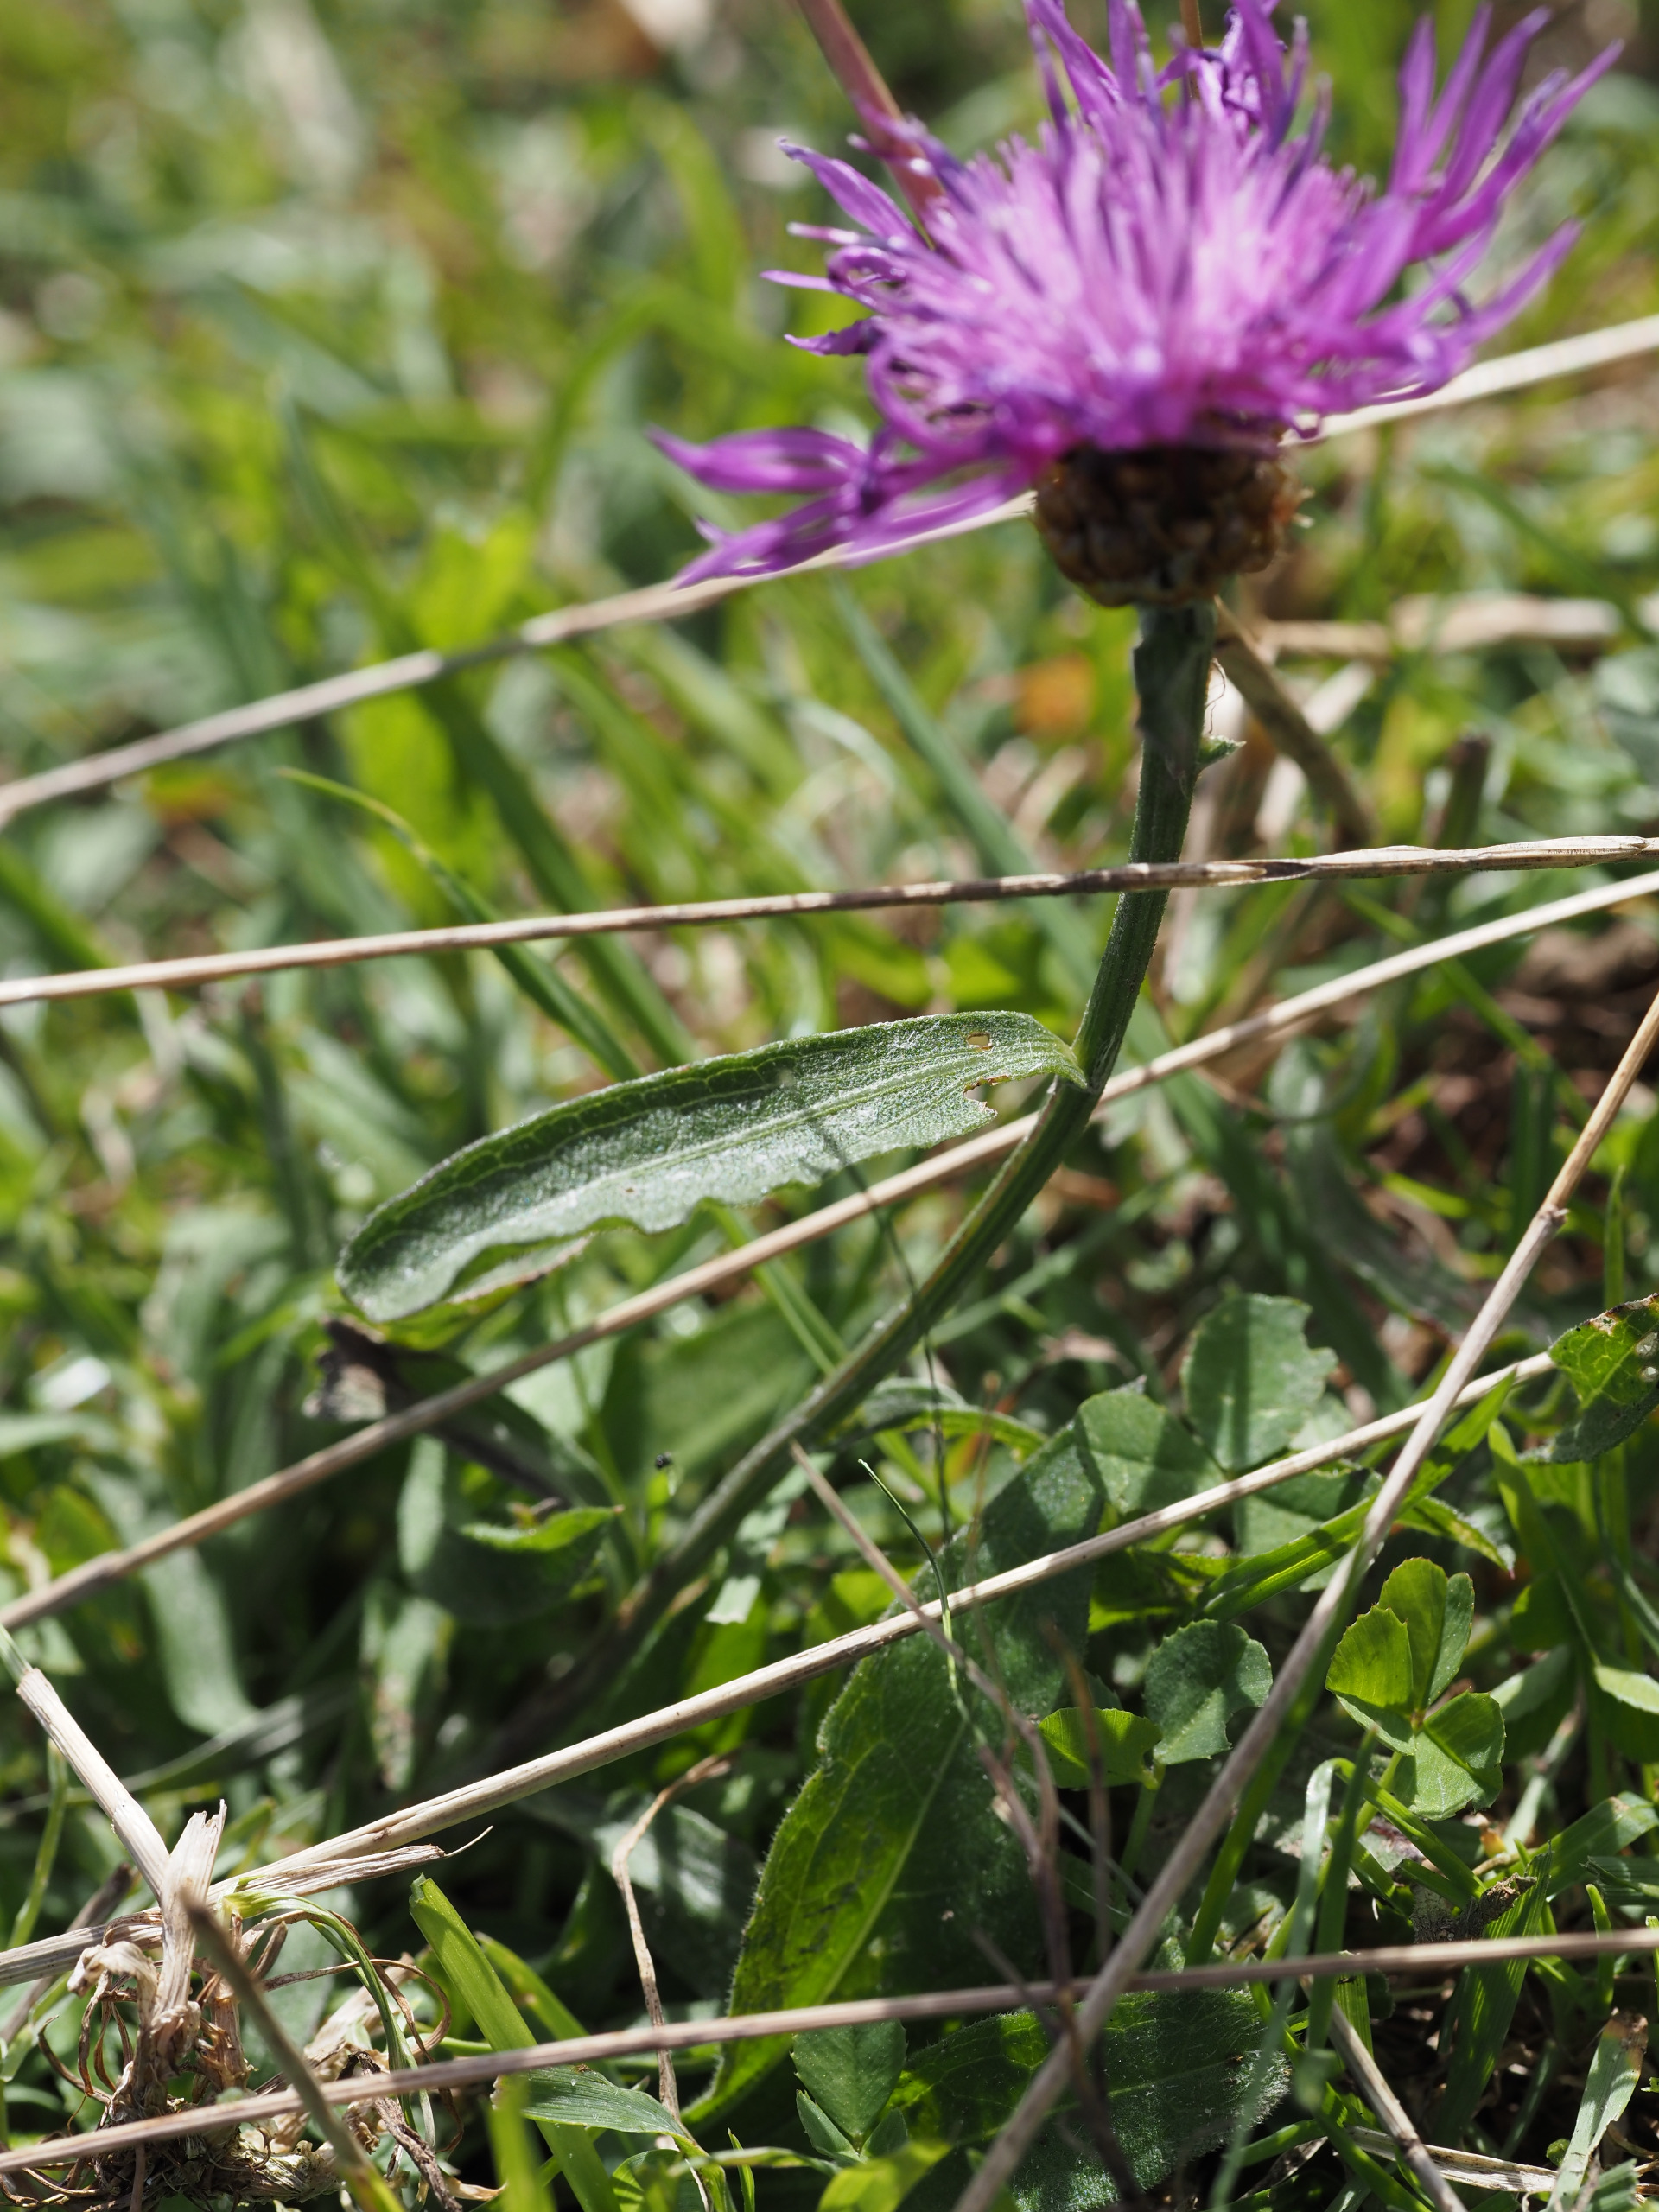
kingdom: Plantae
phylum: Tracheophyta
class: Magnoliopsida
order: Asterales
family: Asteraceae
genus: Centaurea
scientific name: Centaurea jacea
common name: Almindelig knopurt
